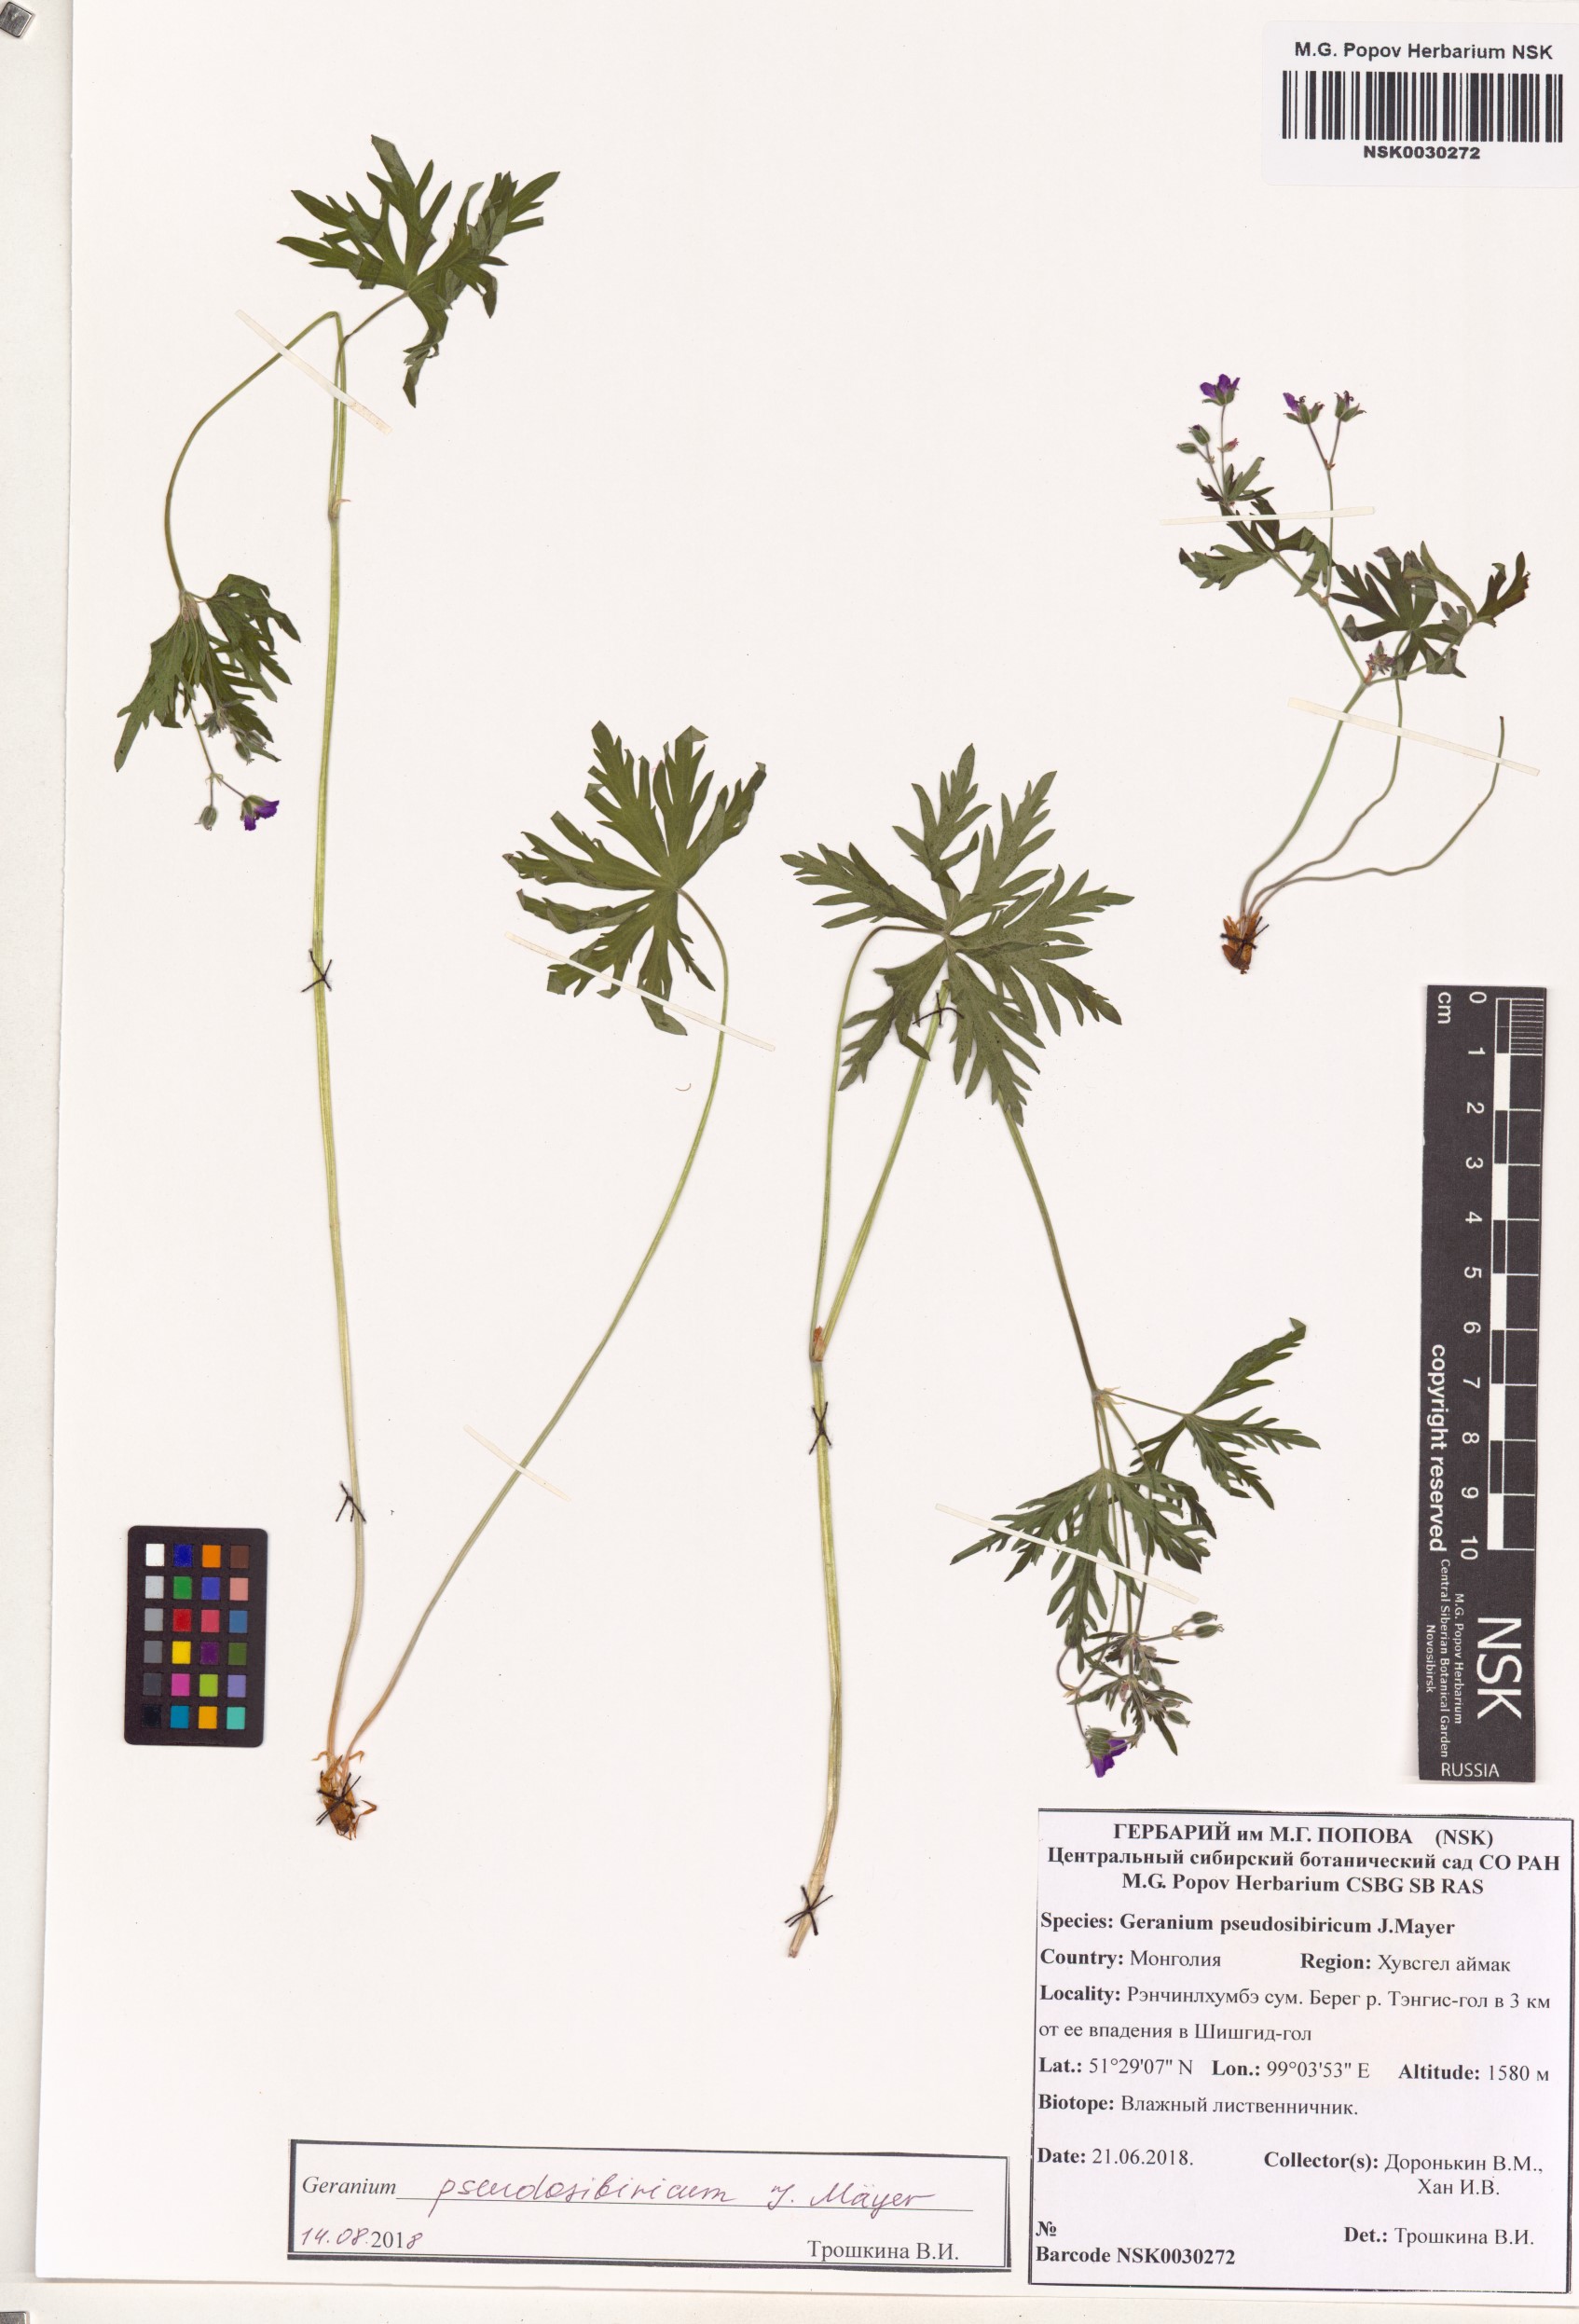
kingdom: Plantae
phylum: Tracheophyta
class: Magnoliopsida
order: Geraniales
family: Geraniaceae
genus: Geranium
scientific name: Geranium pseudosibiricum
